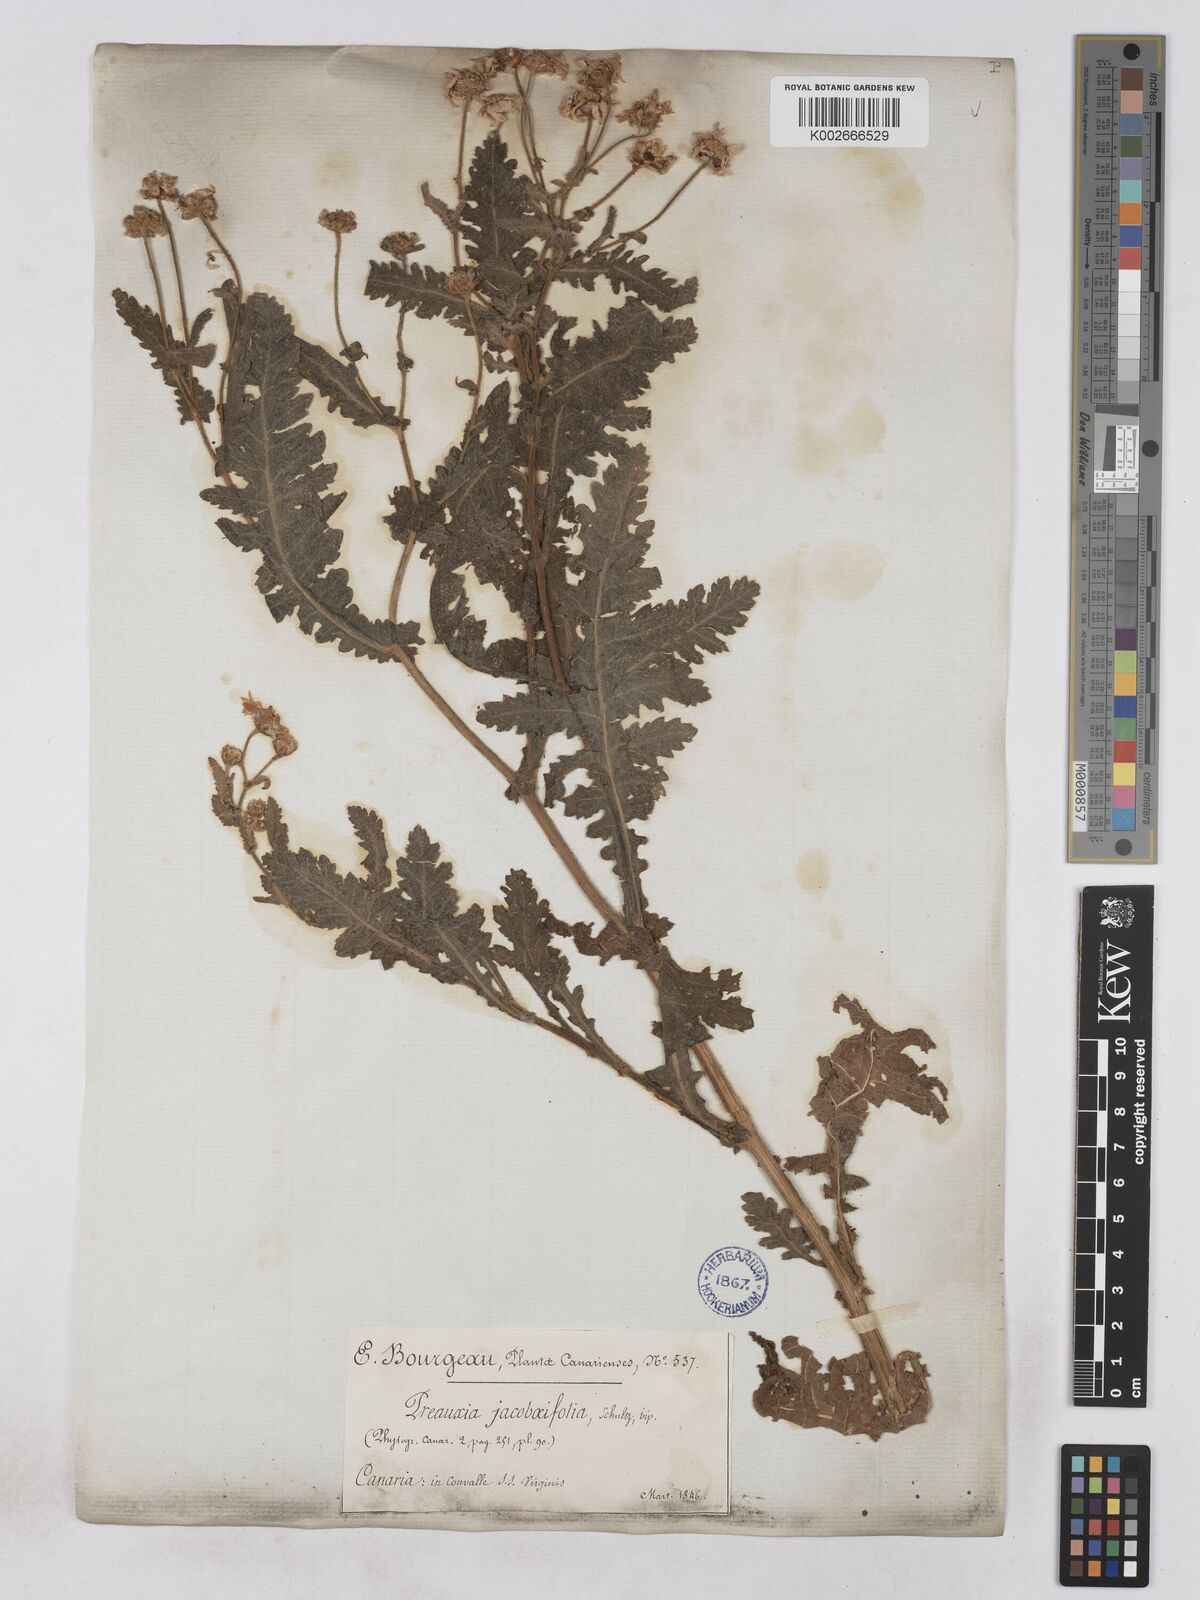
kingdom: Plantae
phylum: Tracheophyta
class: Magnoliopsida
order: Asterales
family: Asteraceae
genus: Argyranthemum
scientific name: Argyranthemum adauctum
